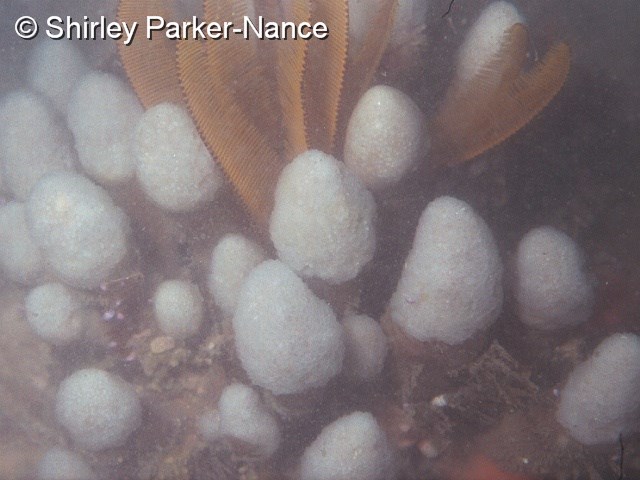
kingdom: Animalia
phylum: Chordata
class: Ascidiacea
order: Aplousobranchia
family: Pseudodistomidae
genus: Pseudodistoma
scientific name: Pseudodistoma africanum
